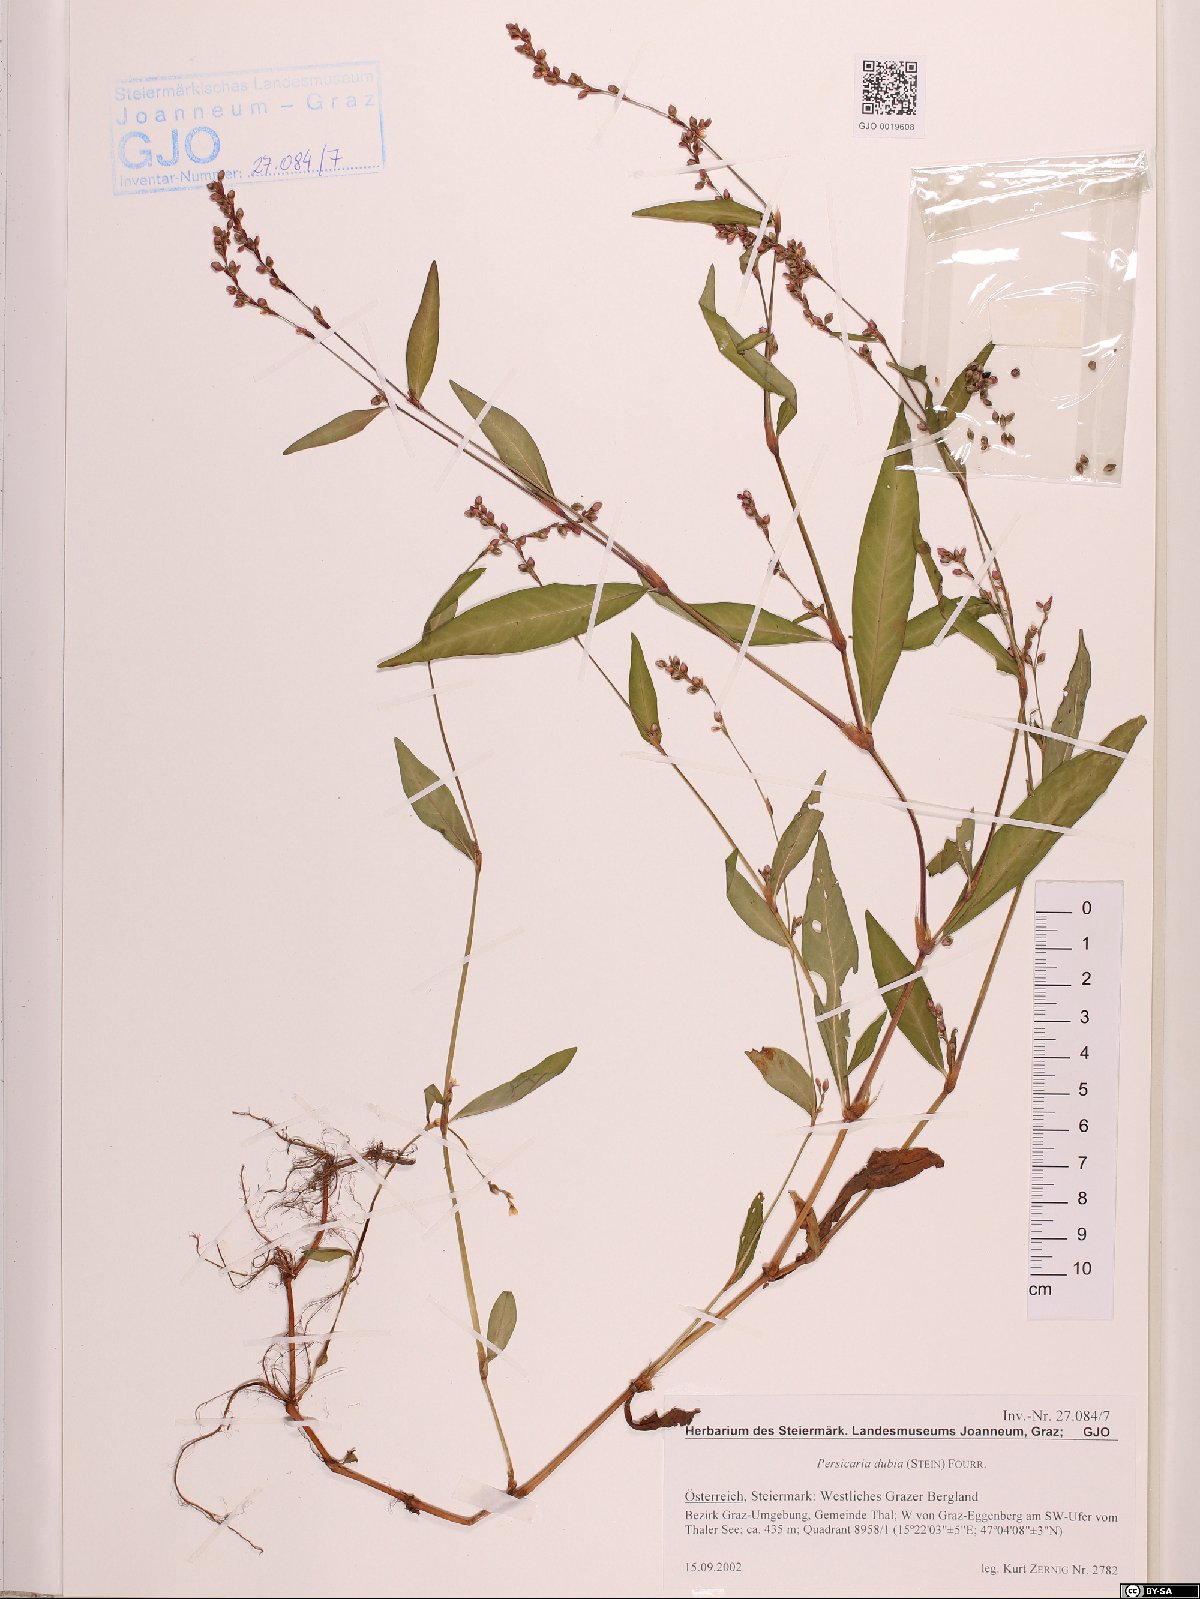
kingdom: Plantae
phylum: Tracheophyta
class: Magnoliopsida
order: Caryophyllales
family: Polygonaceae
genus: Persicaria
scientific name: Persicaria mitis
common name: Tasteless water-pepper
